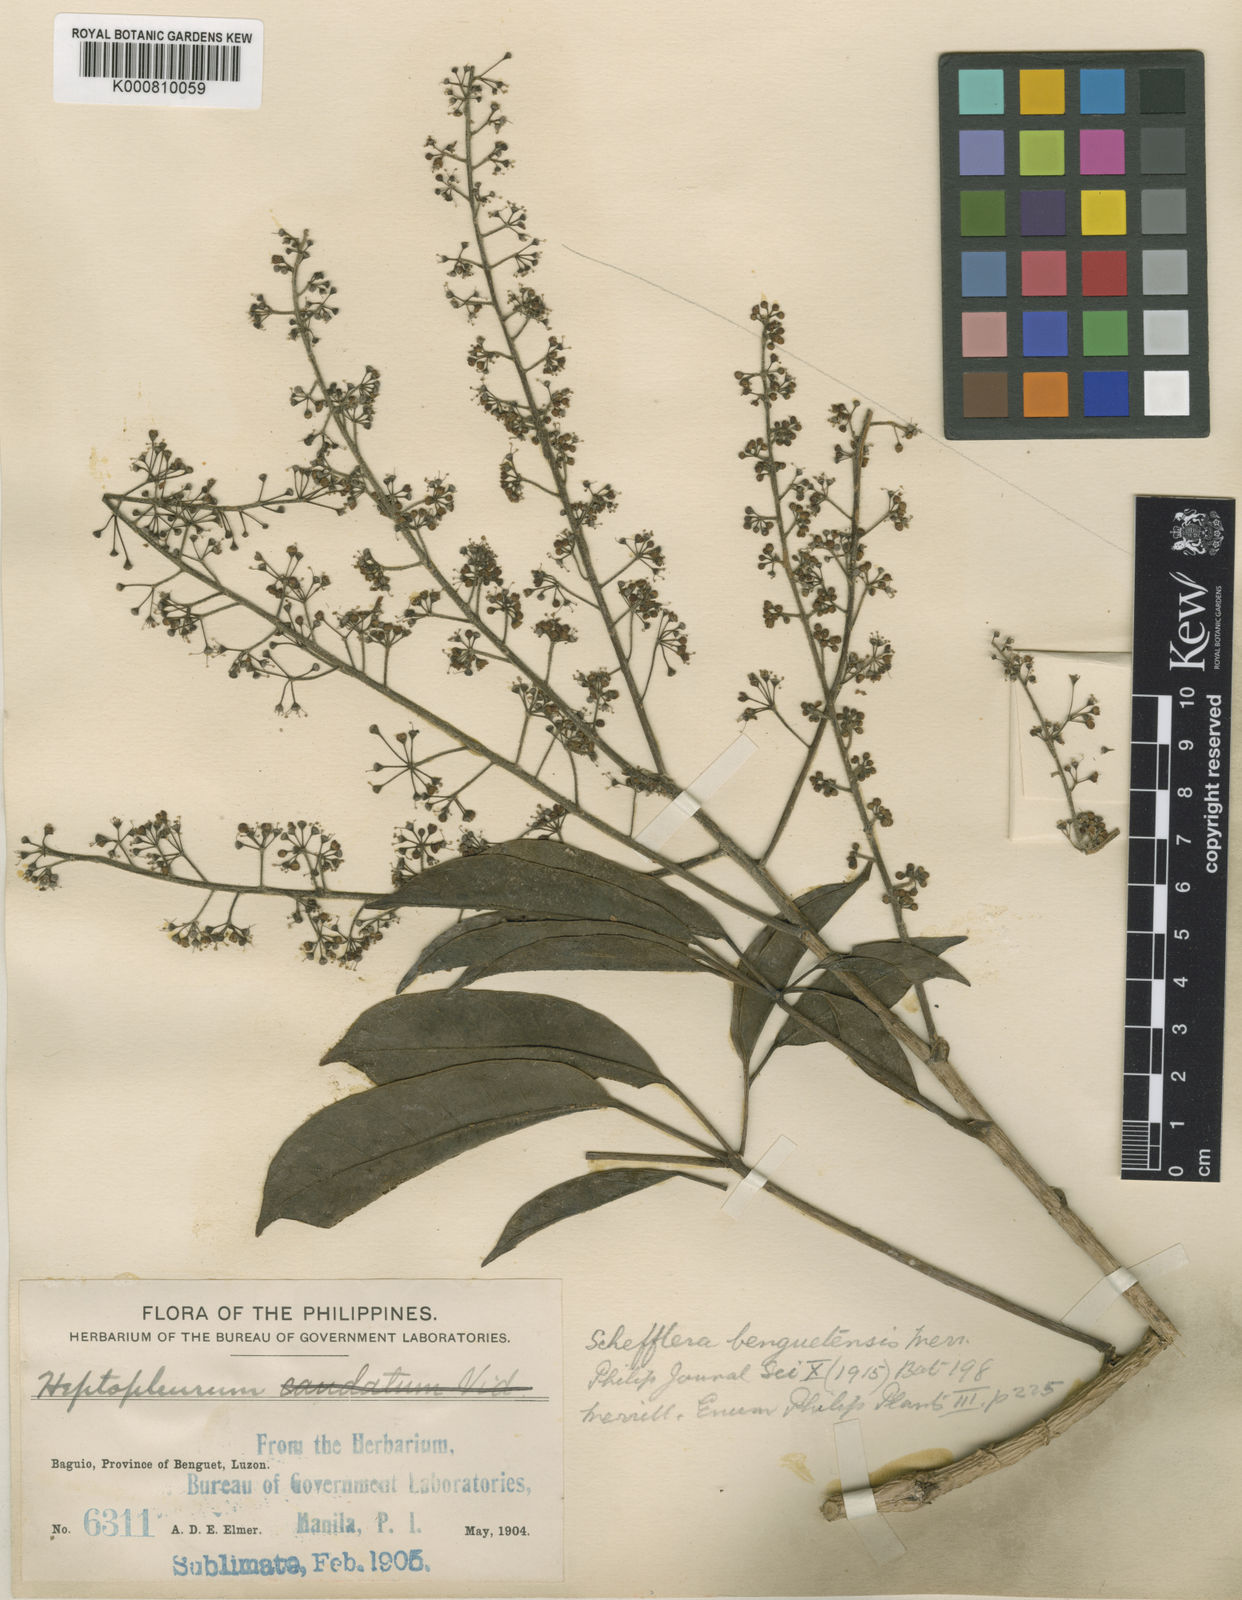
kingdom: Plantae
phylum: Tracheophyta
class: Magnoliopsida
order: Apiales
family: Araliaceae
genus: Heptapleurum
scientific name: Heptapleurum benguetense
